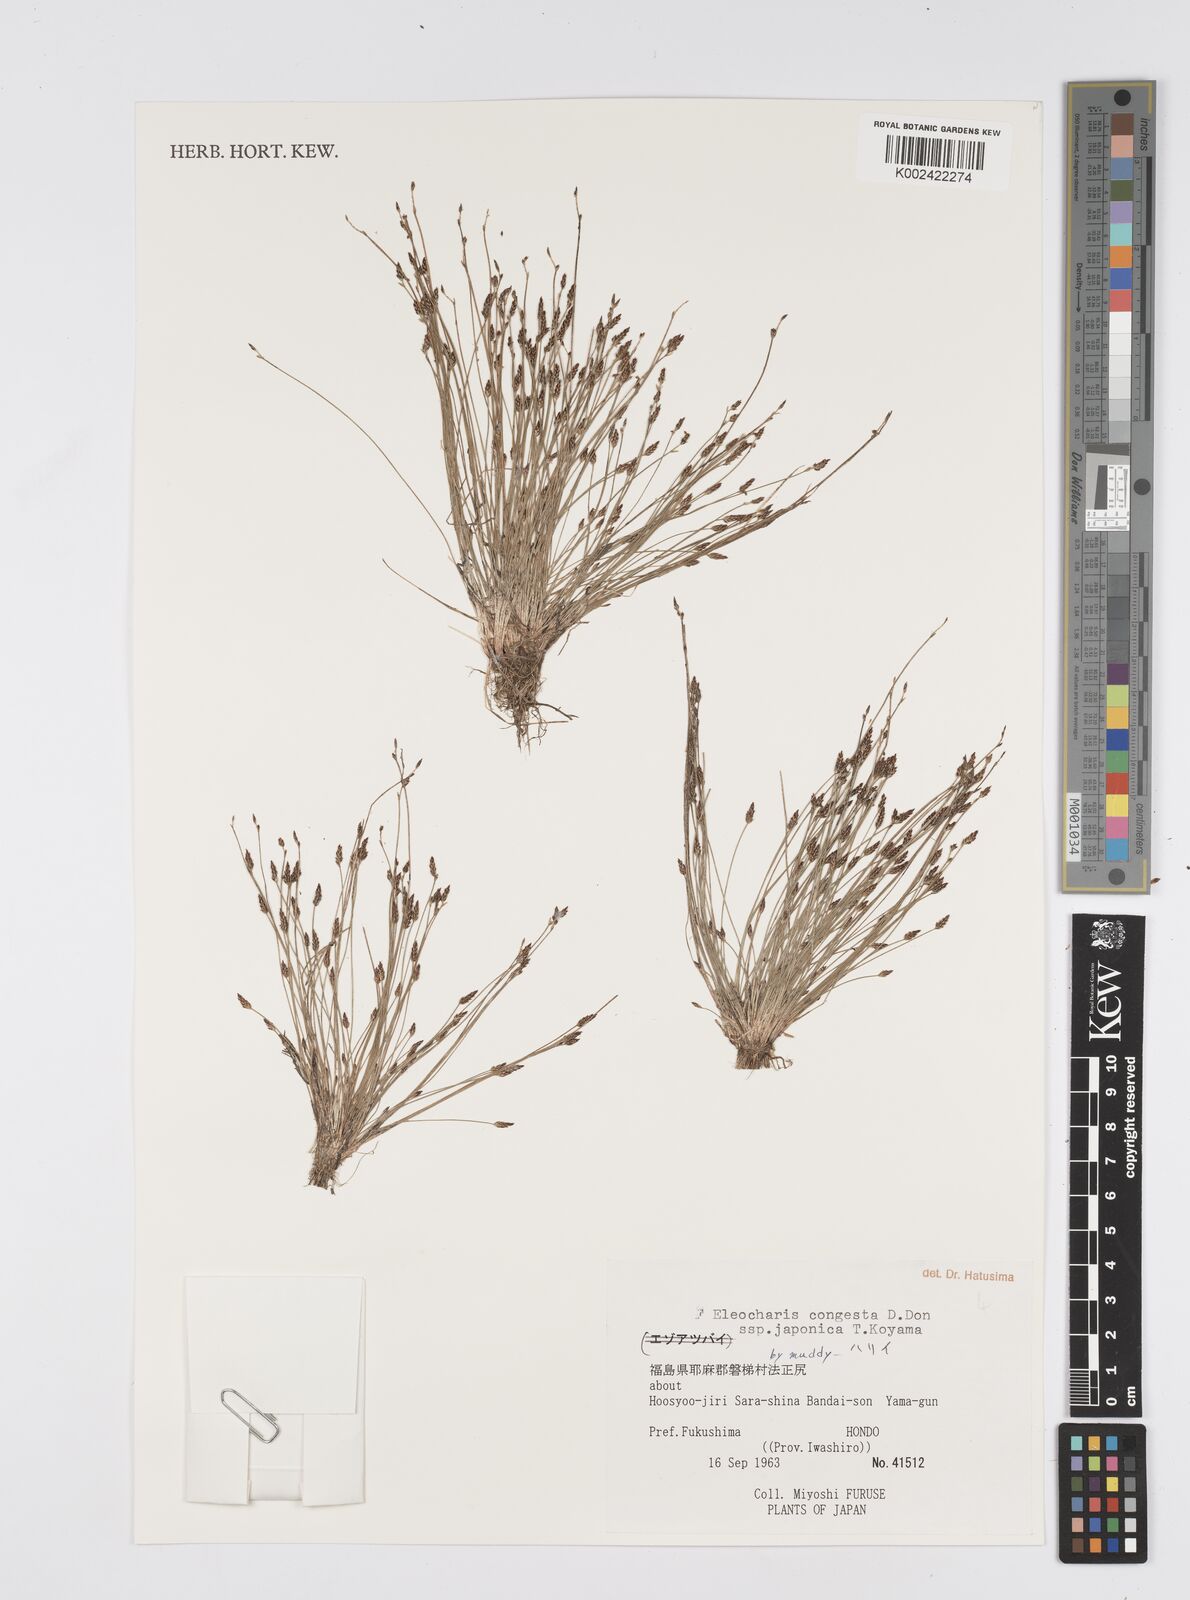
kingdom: Plantae
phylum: Tracheophyta
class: Liliopsida
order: Poales
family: Cyperaceae
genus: Eleocharis
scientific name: Eleocharis congesta
